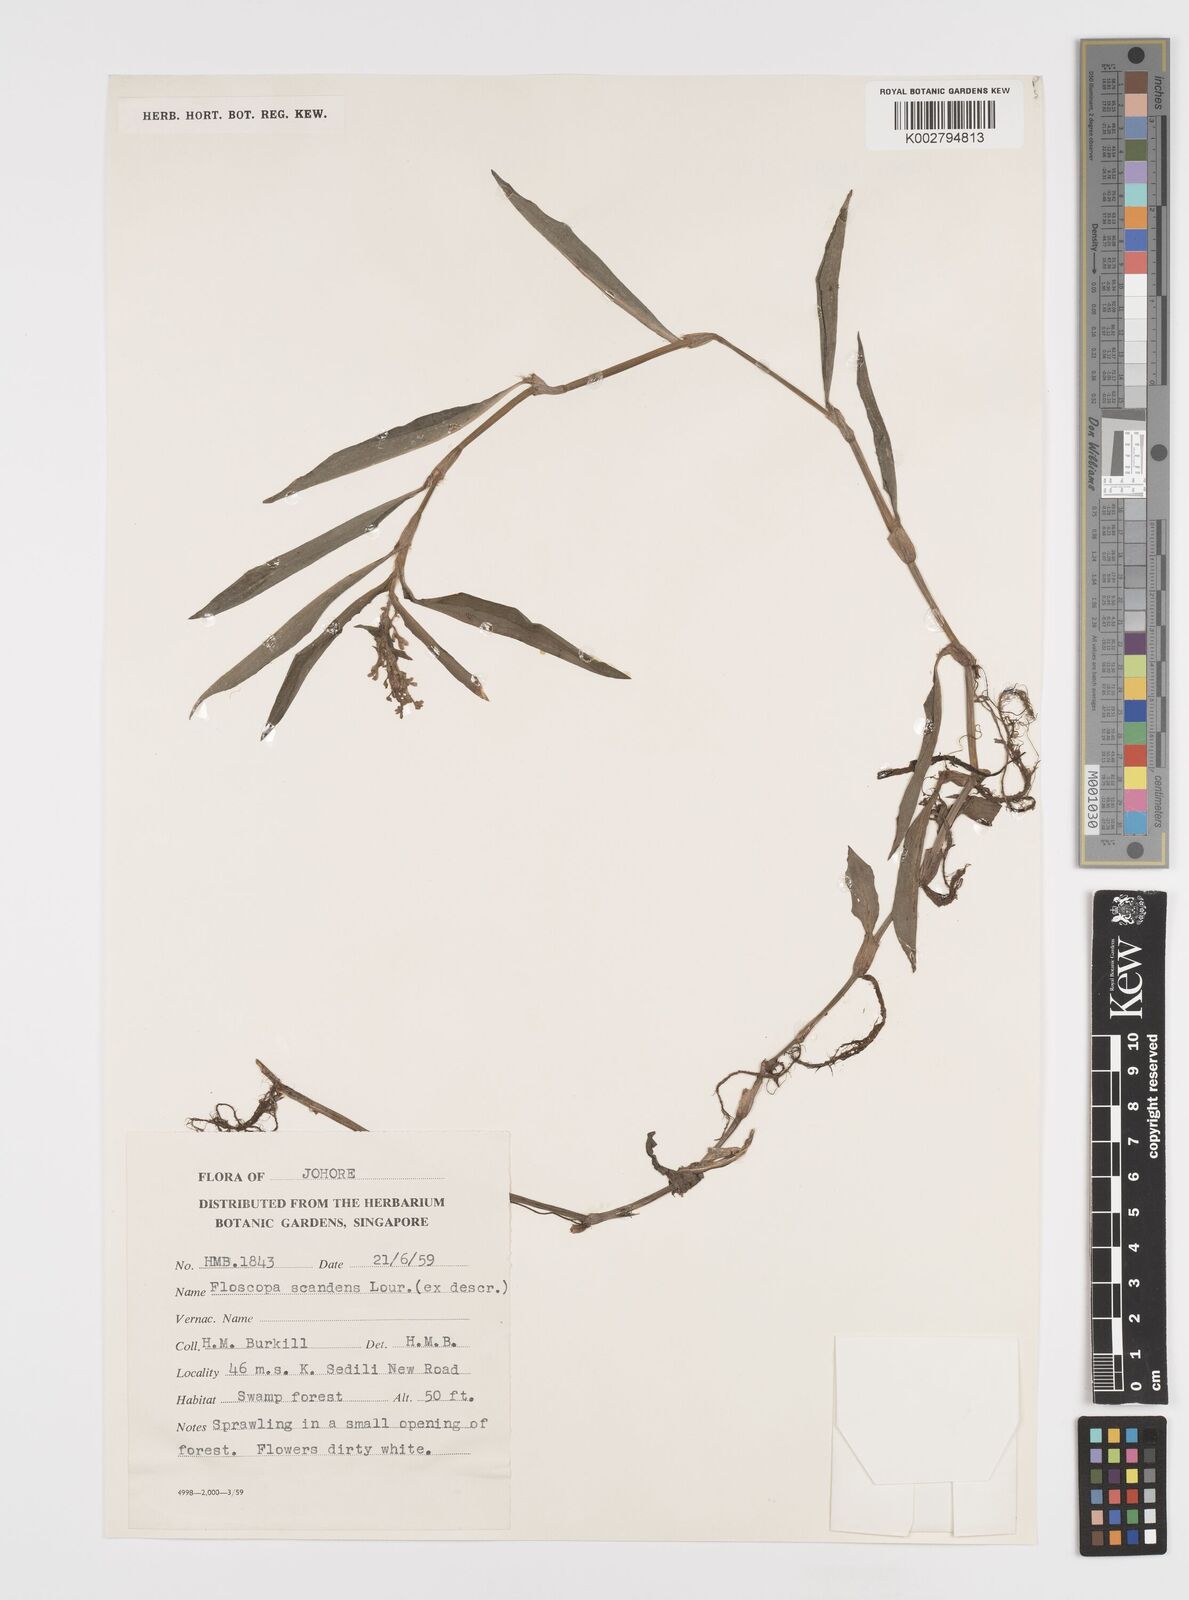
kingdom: Plantae
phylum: Tracheophyta
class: Liliopsida
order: Commelinales
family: Commelinaceae
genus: Floscopa
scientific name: Floscopa scandens
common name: Climbing flower cup
